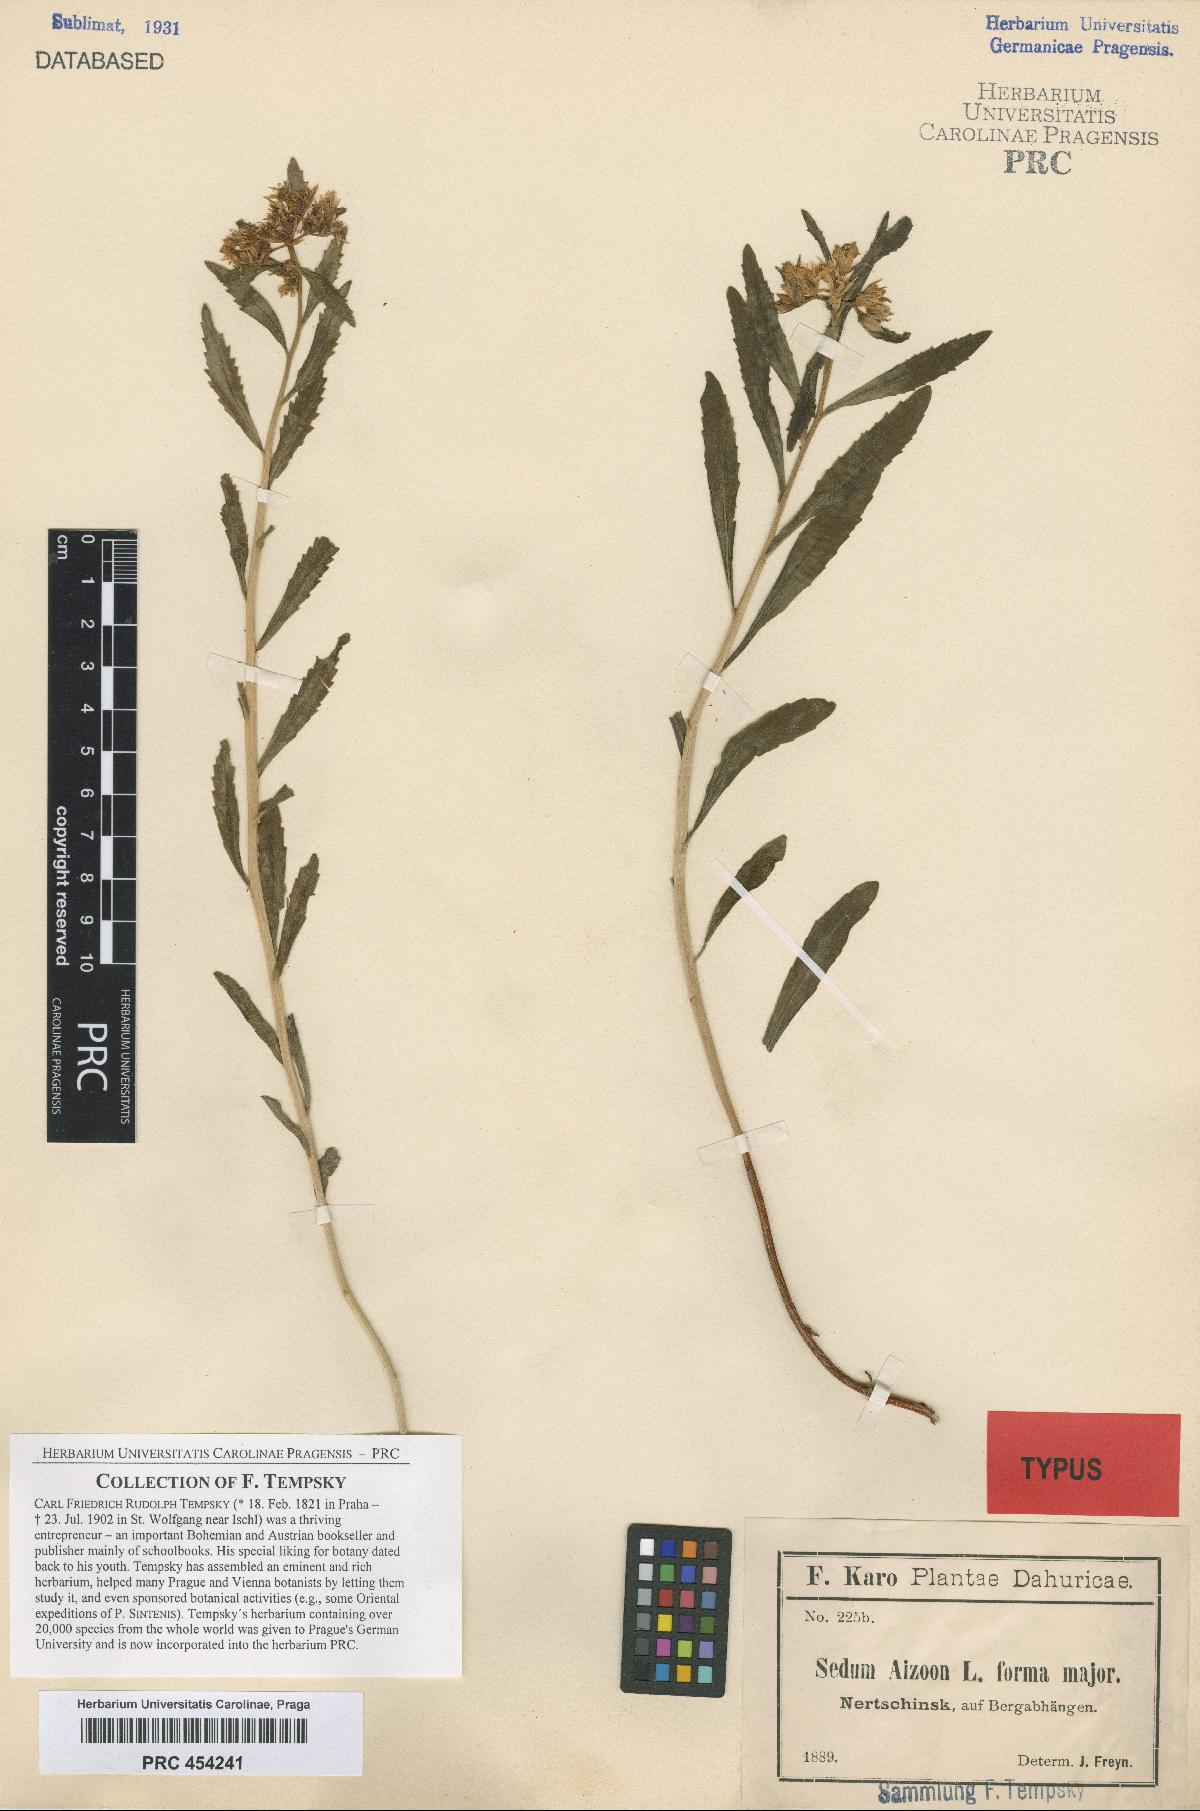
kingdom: Plantae
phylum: Tracheophyta
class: Magnoliopsida
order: Saxifragales
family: Crassulaceae
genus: Sedum
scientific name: Sedum aizoon
